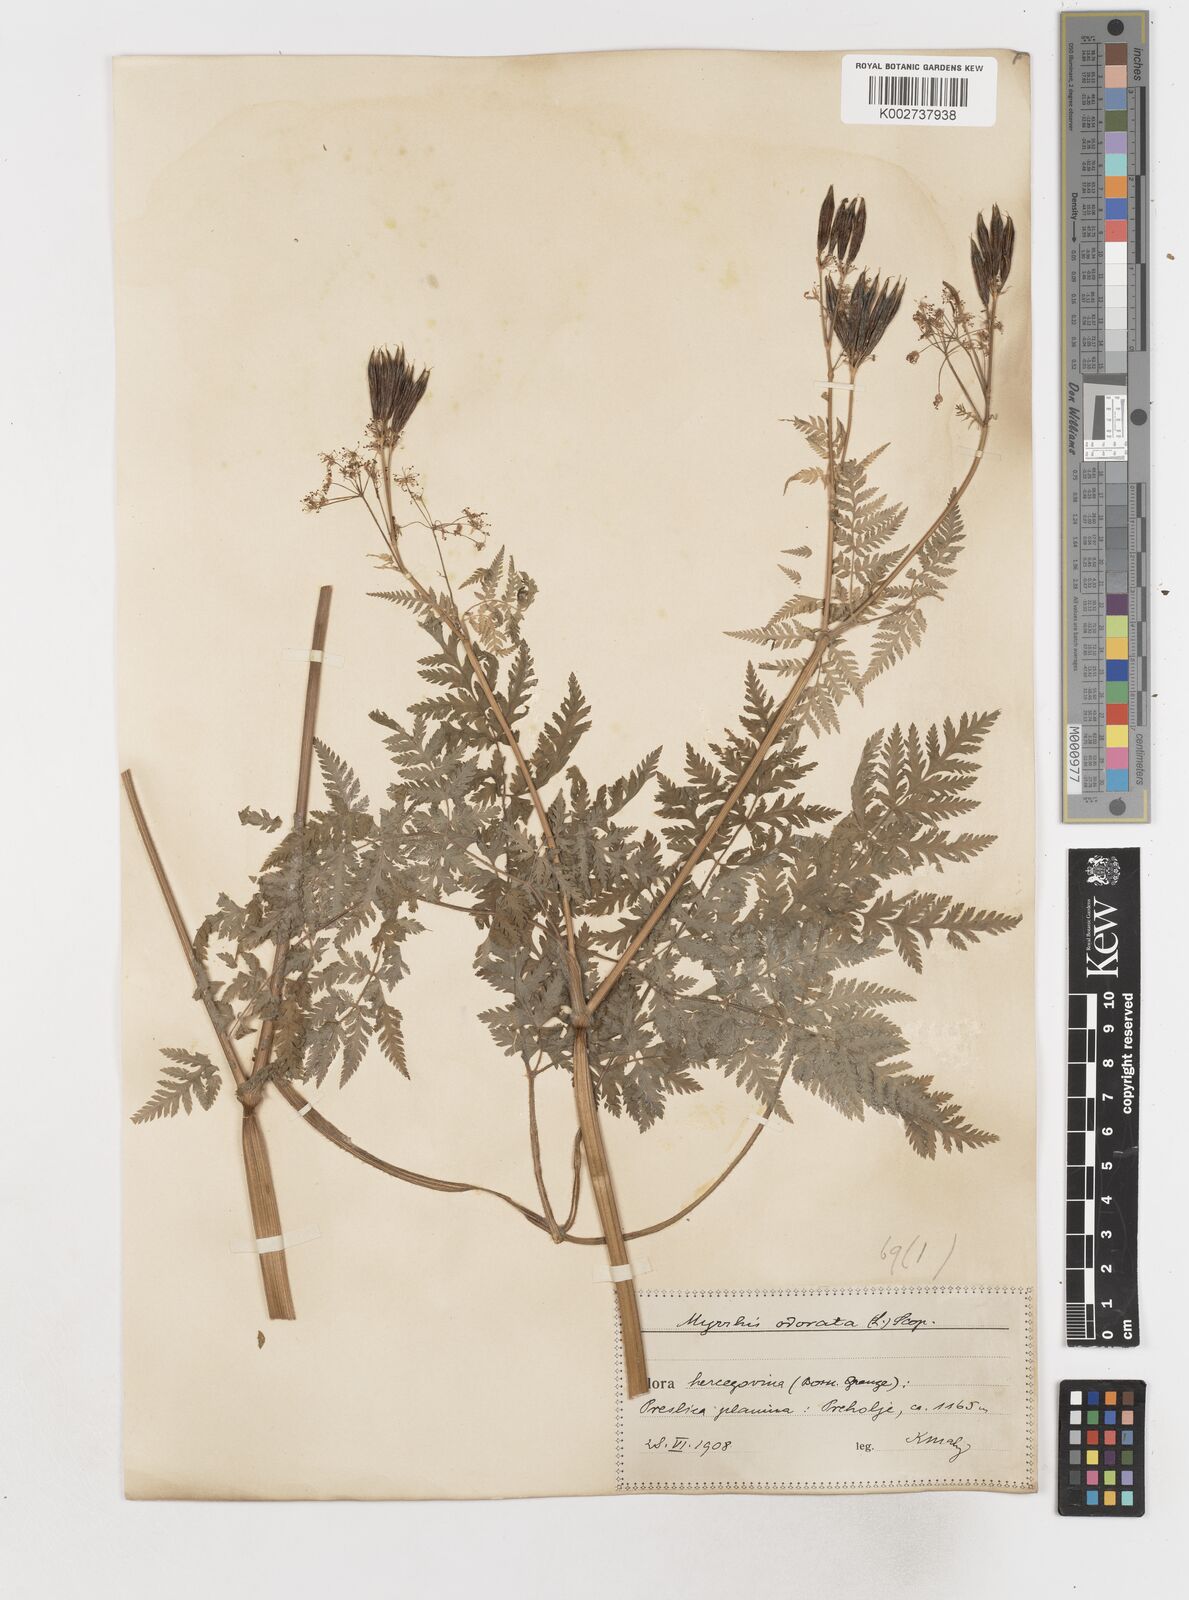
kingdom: Plantae
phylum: Tracheophyta
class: Magnoliopsida
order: Apiales
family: Apiaceae
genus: Myrrhis
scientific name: Myrrhis odorata
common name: Sweet cicely
